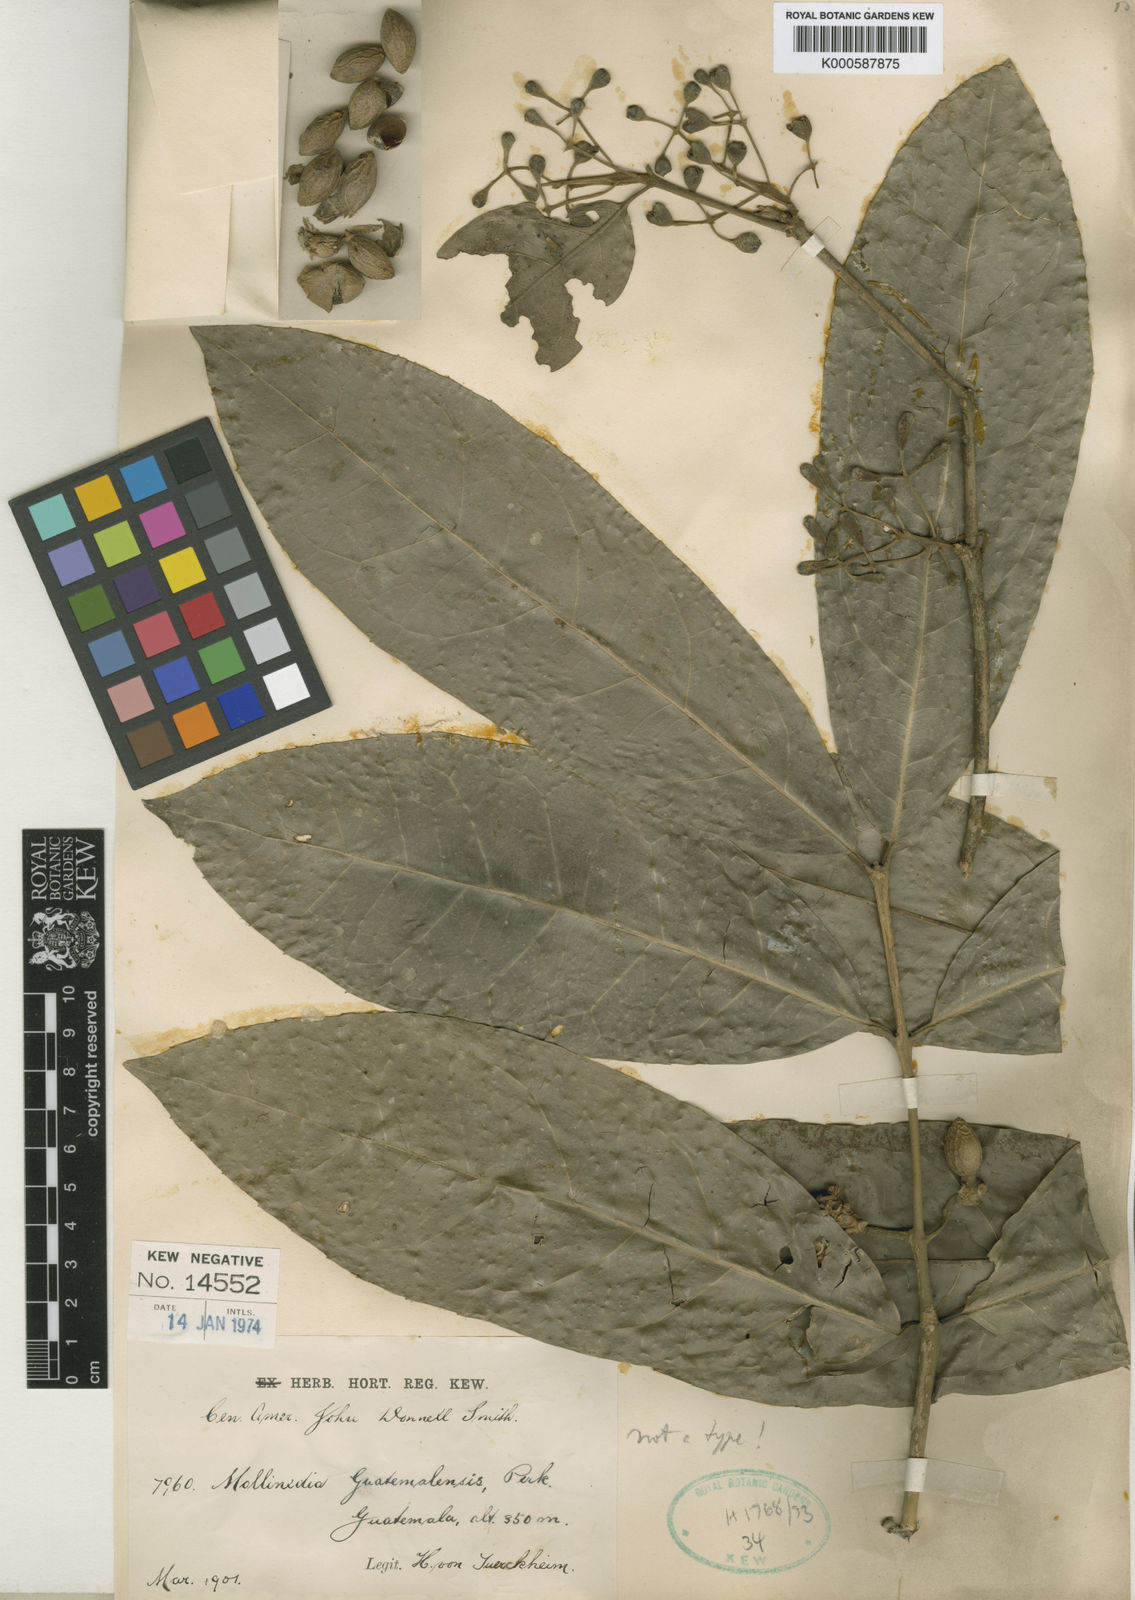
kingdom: Plantae
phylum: Tracheophyta
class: Magnoliopsida
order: Laurales
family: Monimiaceae
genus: Mollinedia
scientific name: Mollinedia viridiflora
